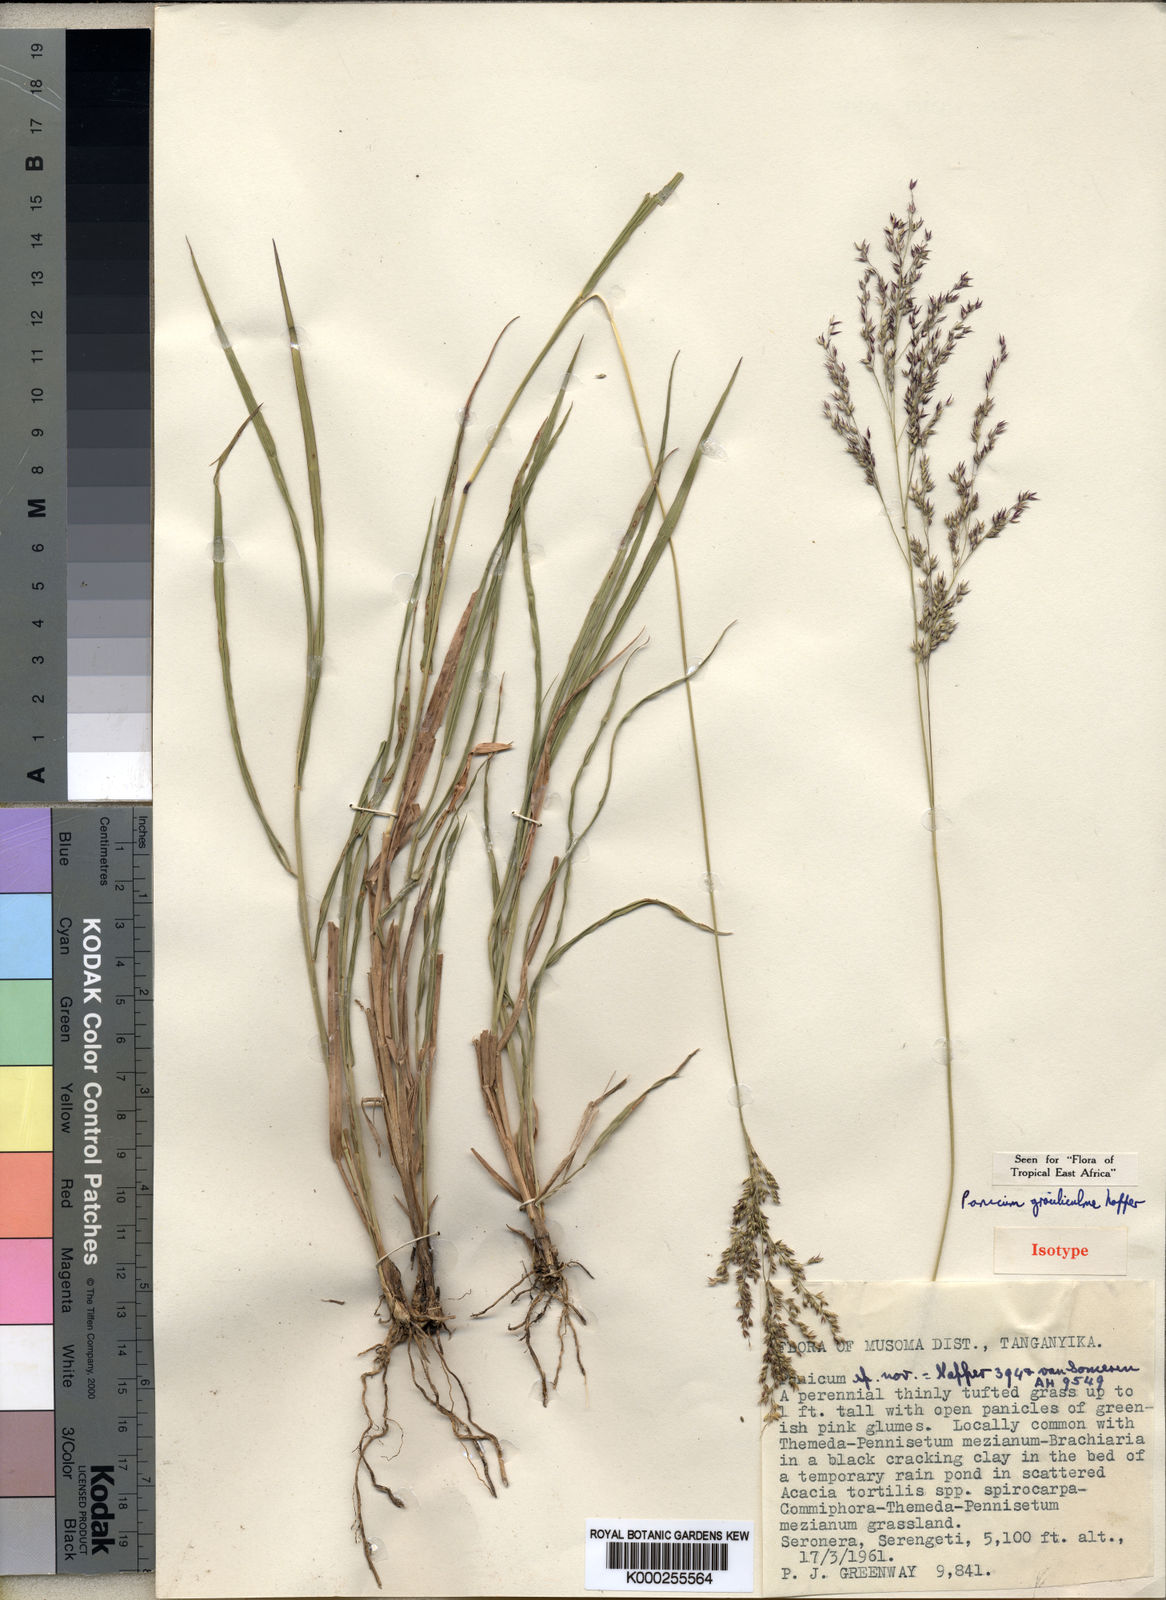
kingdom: Plantae
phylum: Tracheophyta
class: Liliopsida
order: Poales
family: Poaceae
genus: Panicum
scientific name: Panicum
